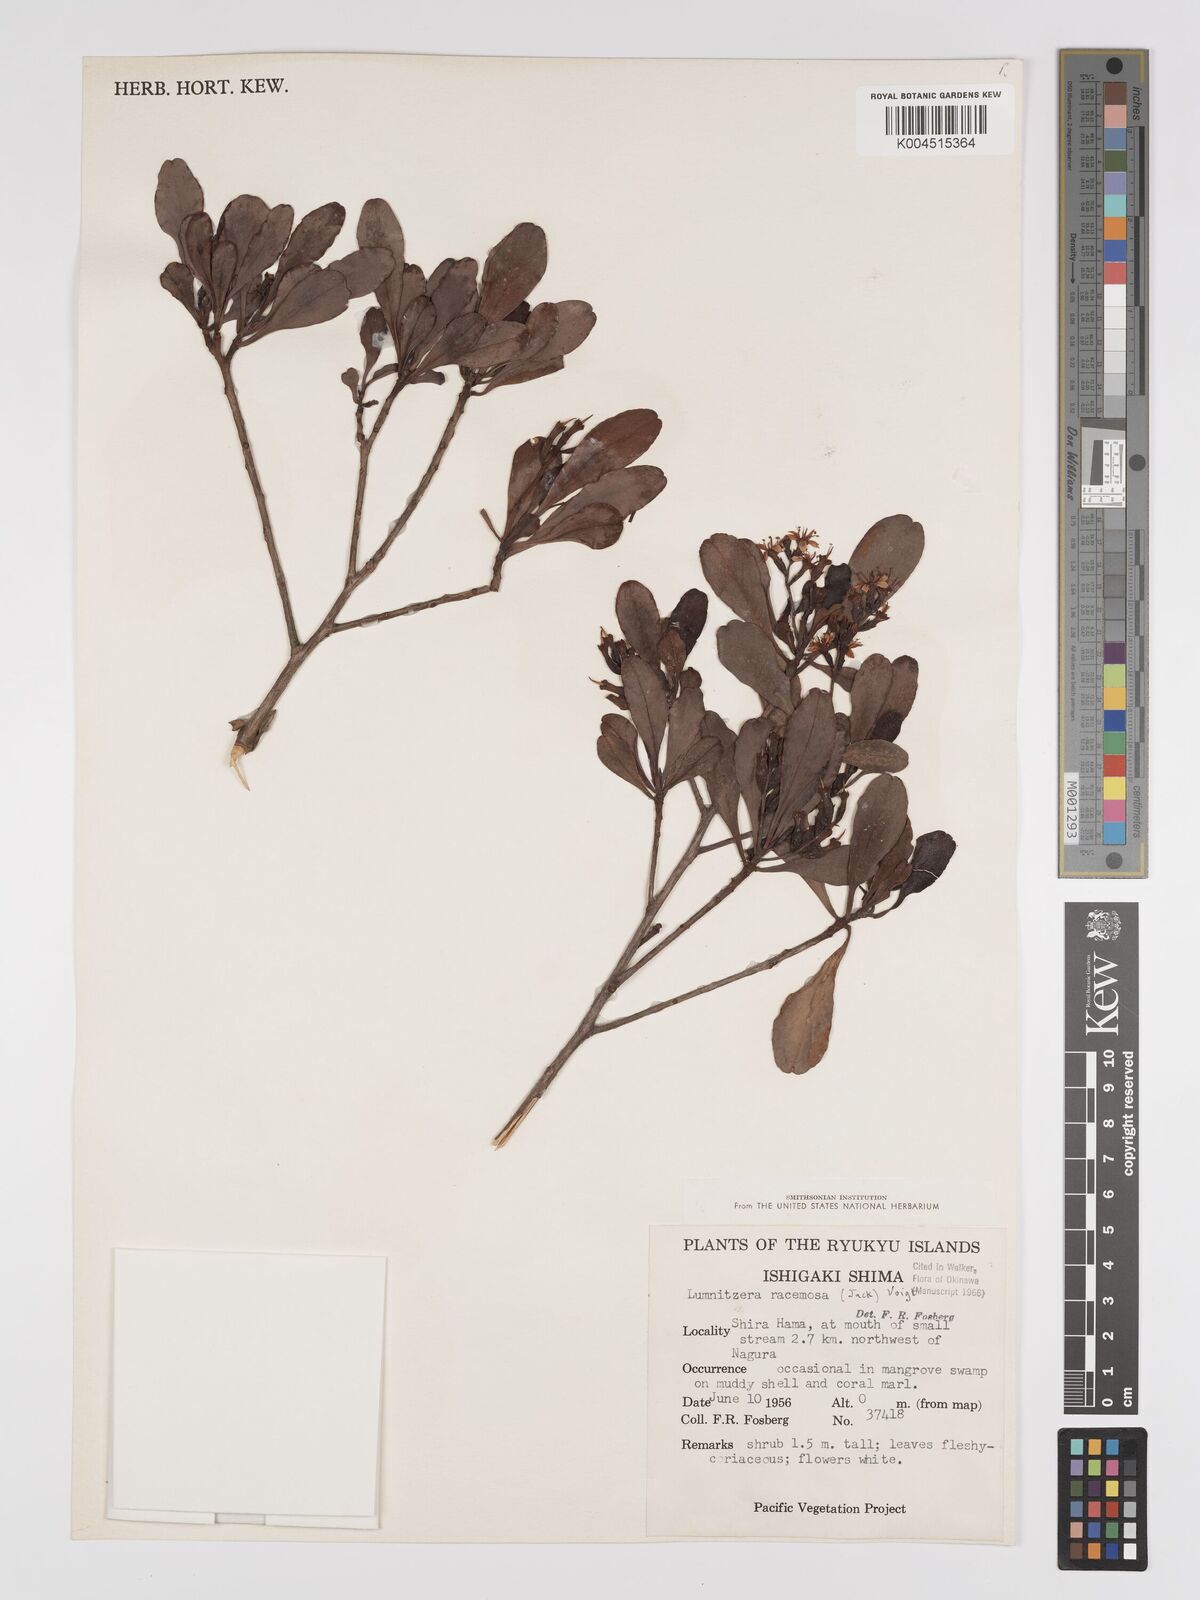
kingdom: Plantae
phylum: Tracheophyta
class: Magnoliopsida
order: Myrtales
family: Combretaceae
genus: Lumnitzera
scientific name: Lumnitzera racemosa
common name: White-flowered black mangrove
